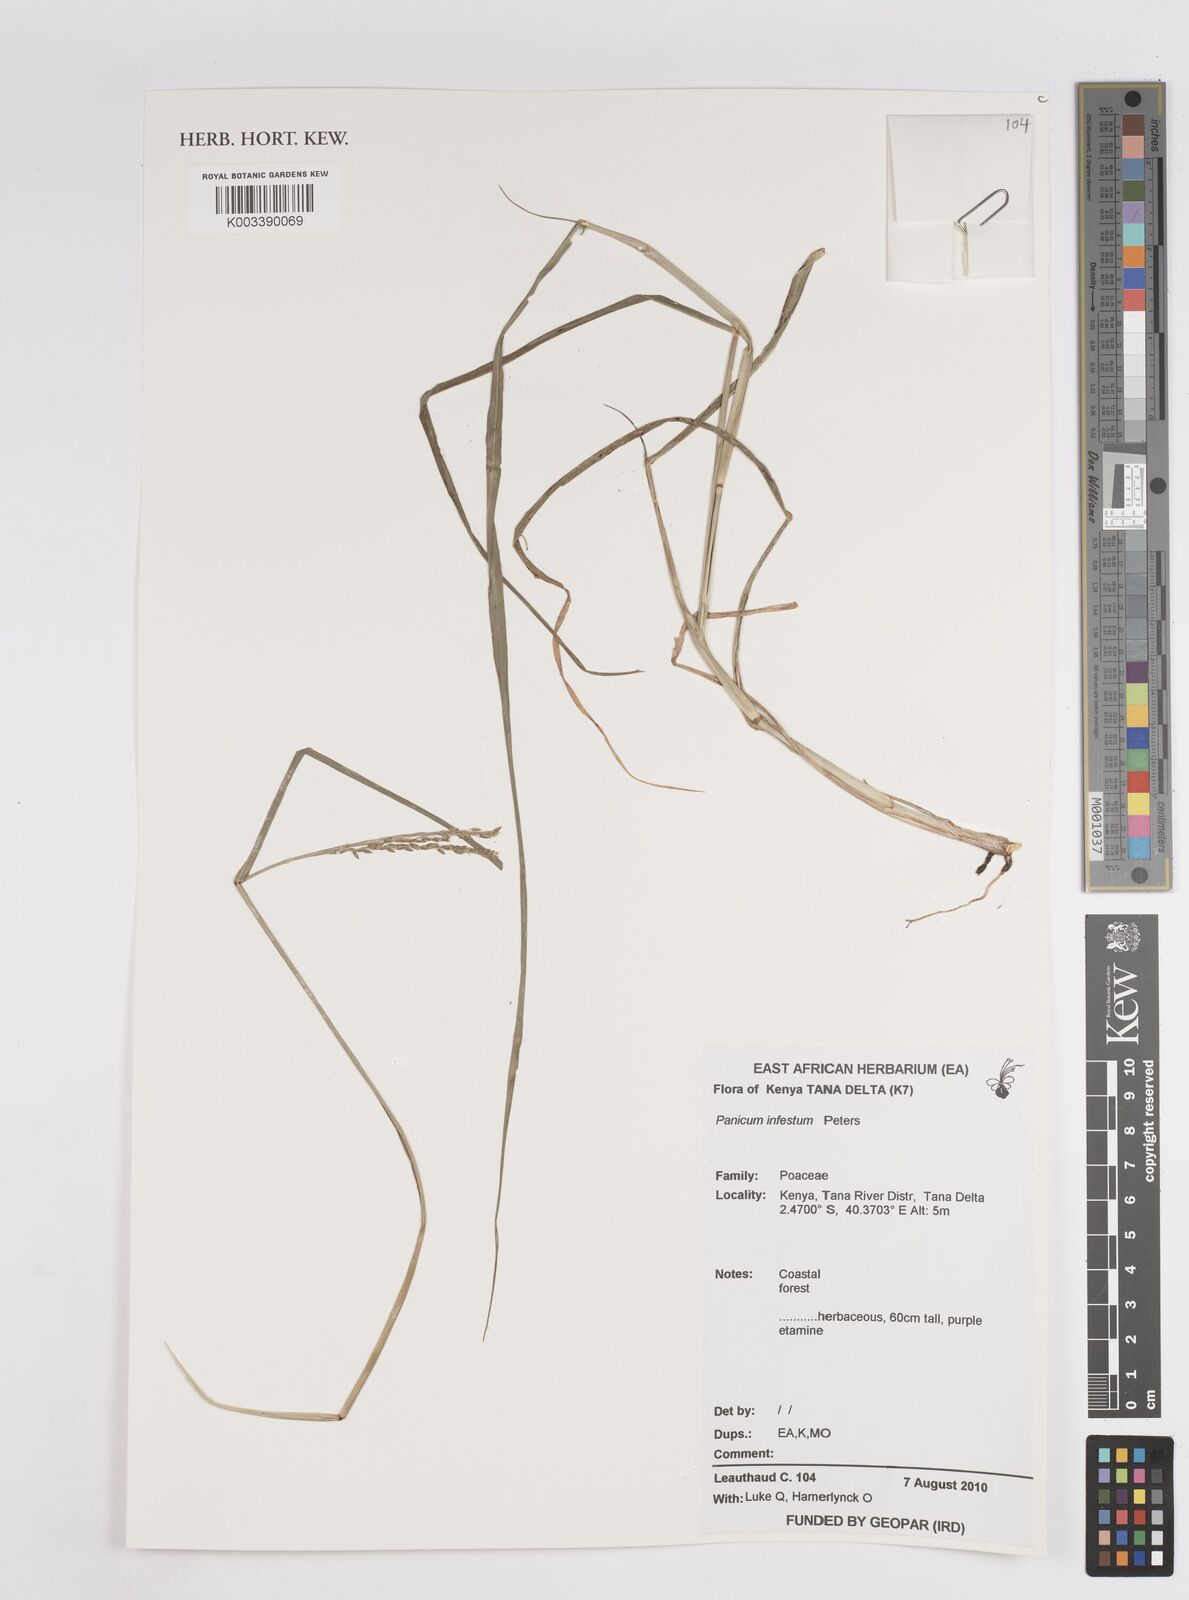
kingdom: Plantae
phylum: Tracheophyta
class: Liliopsida
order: Poales
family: Poaceae
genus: Megathyrsus
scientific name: Megathyrsus infestus
